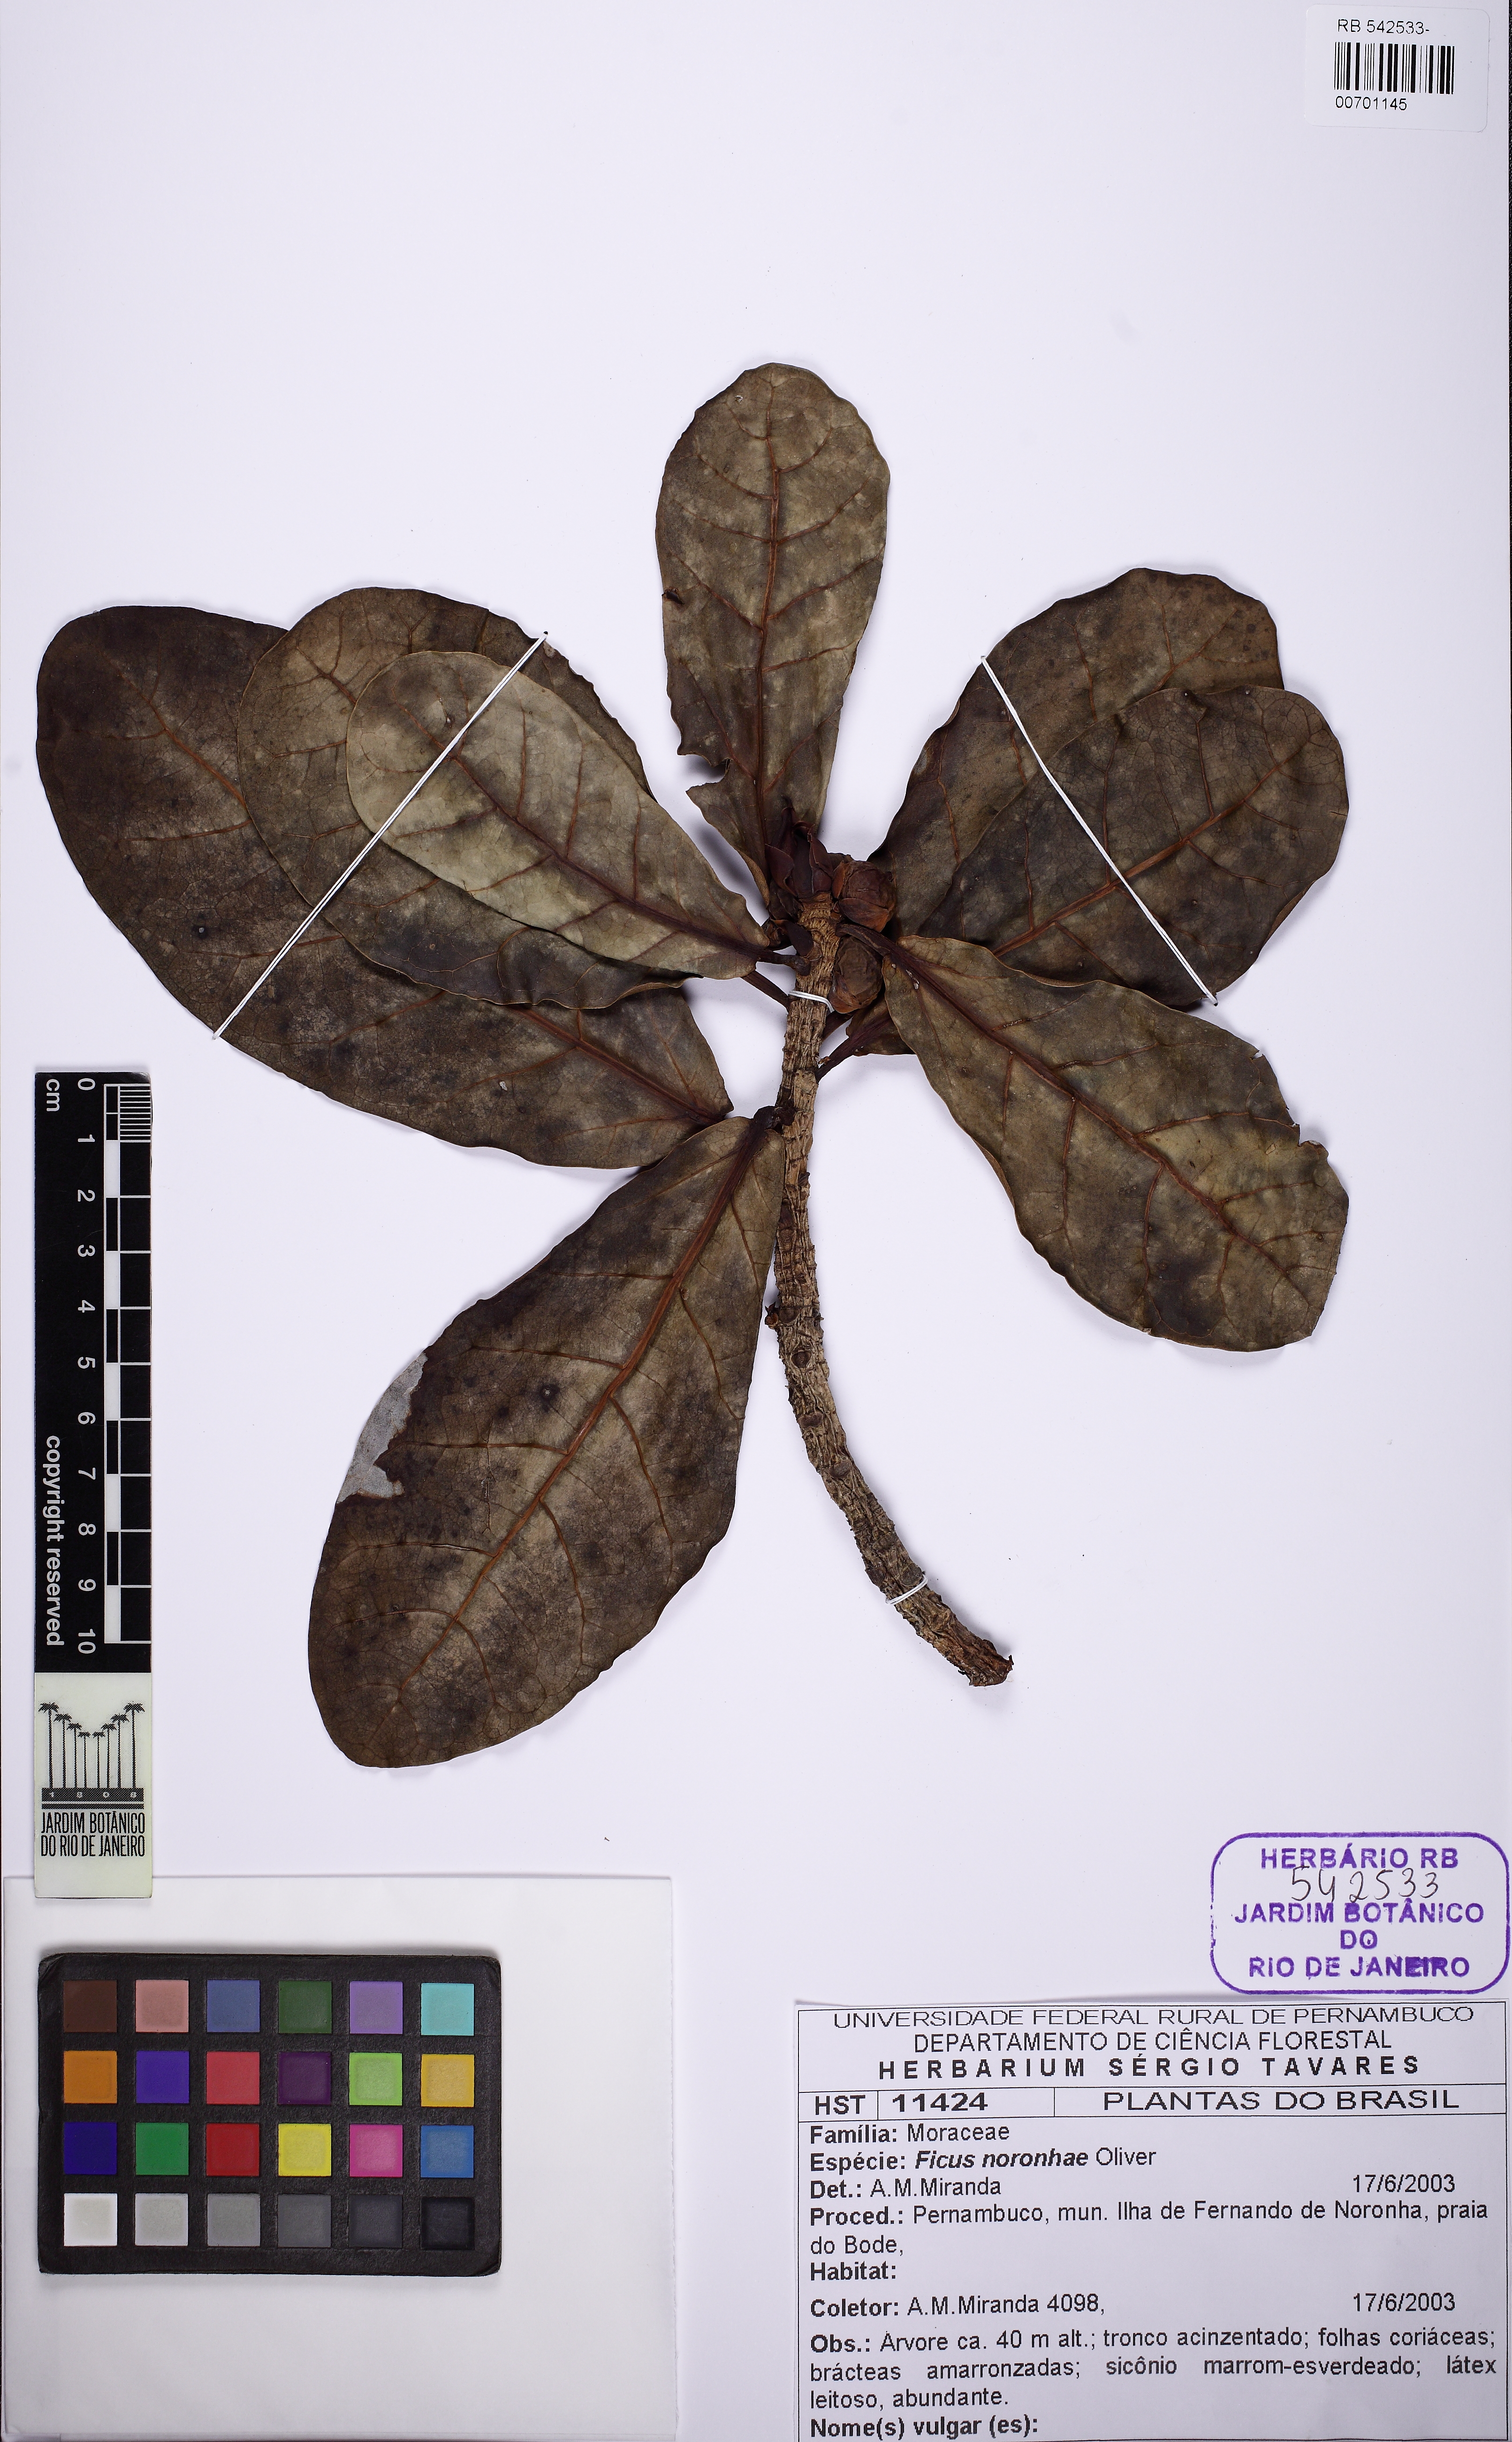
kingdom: Plantae
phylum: Tracheophyta
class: Magnoliopsida
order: Rosales
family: Moraceae
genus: Ficus
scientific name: Ficus cyclophylla
